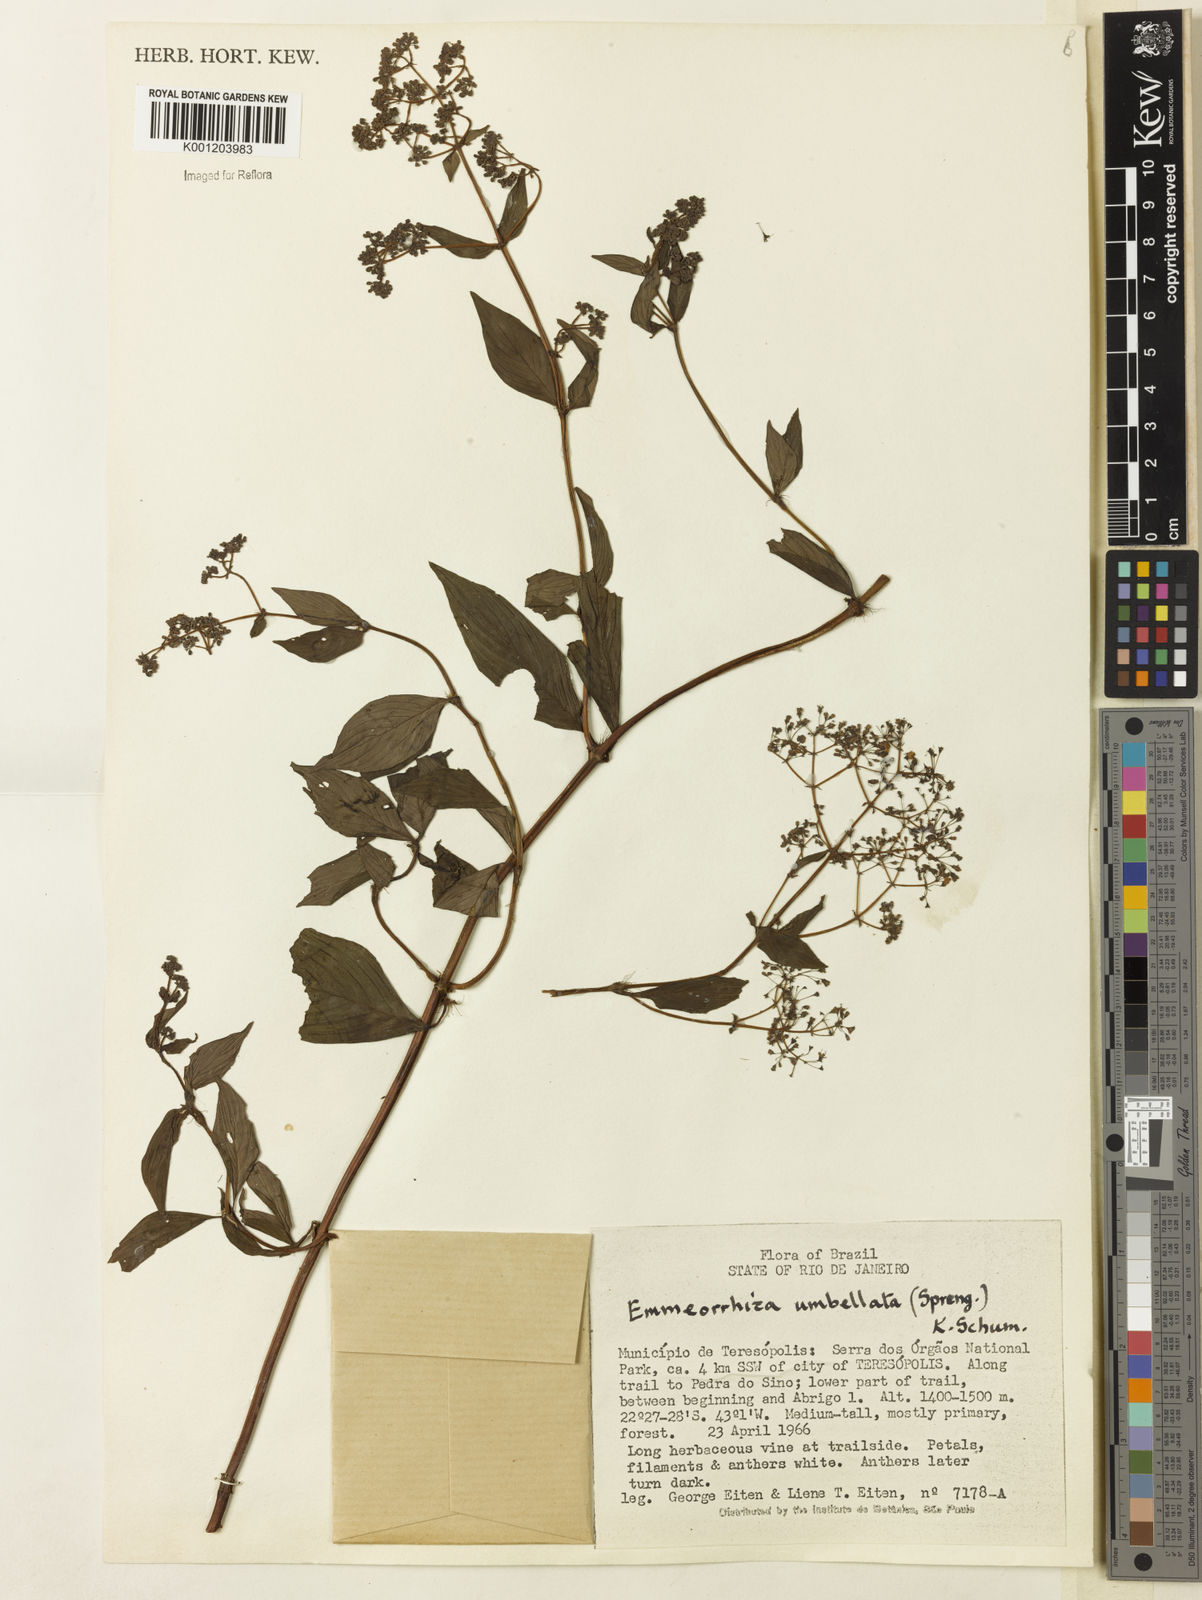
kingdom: Plantae
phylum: Tracheophyta
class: Magnoliopsida
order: Gentianales
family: Rubiaceae
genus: Emmeorhiza
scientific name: Emmeorhiza umbellata
